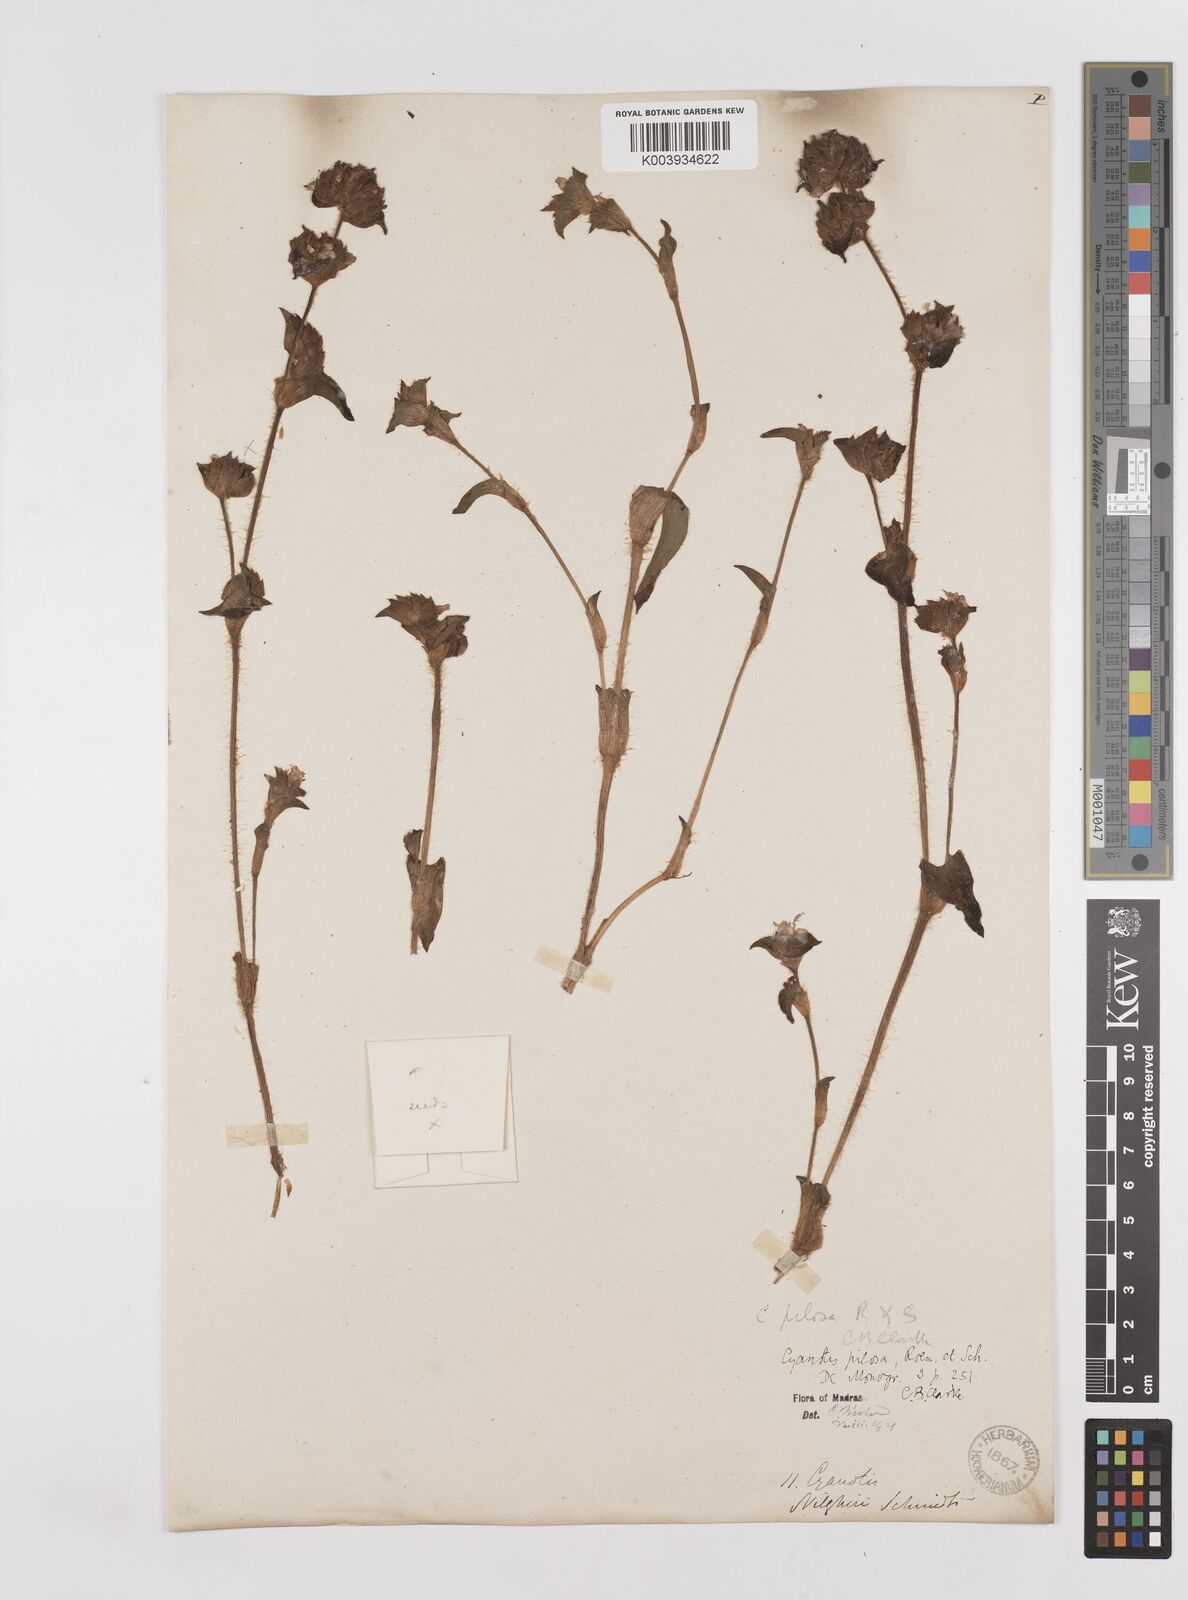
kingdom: Plantae
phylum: Tracheophyta
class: Liliopsida
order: Commelinales
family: Commelinaceae
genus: Cyanotis
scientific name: Cyanotis pilosa
